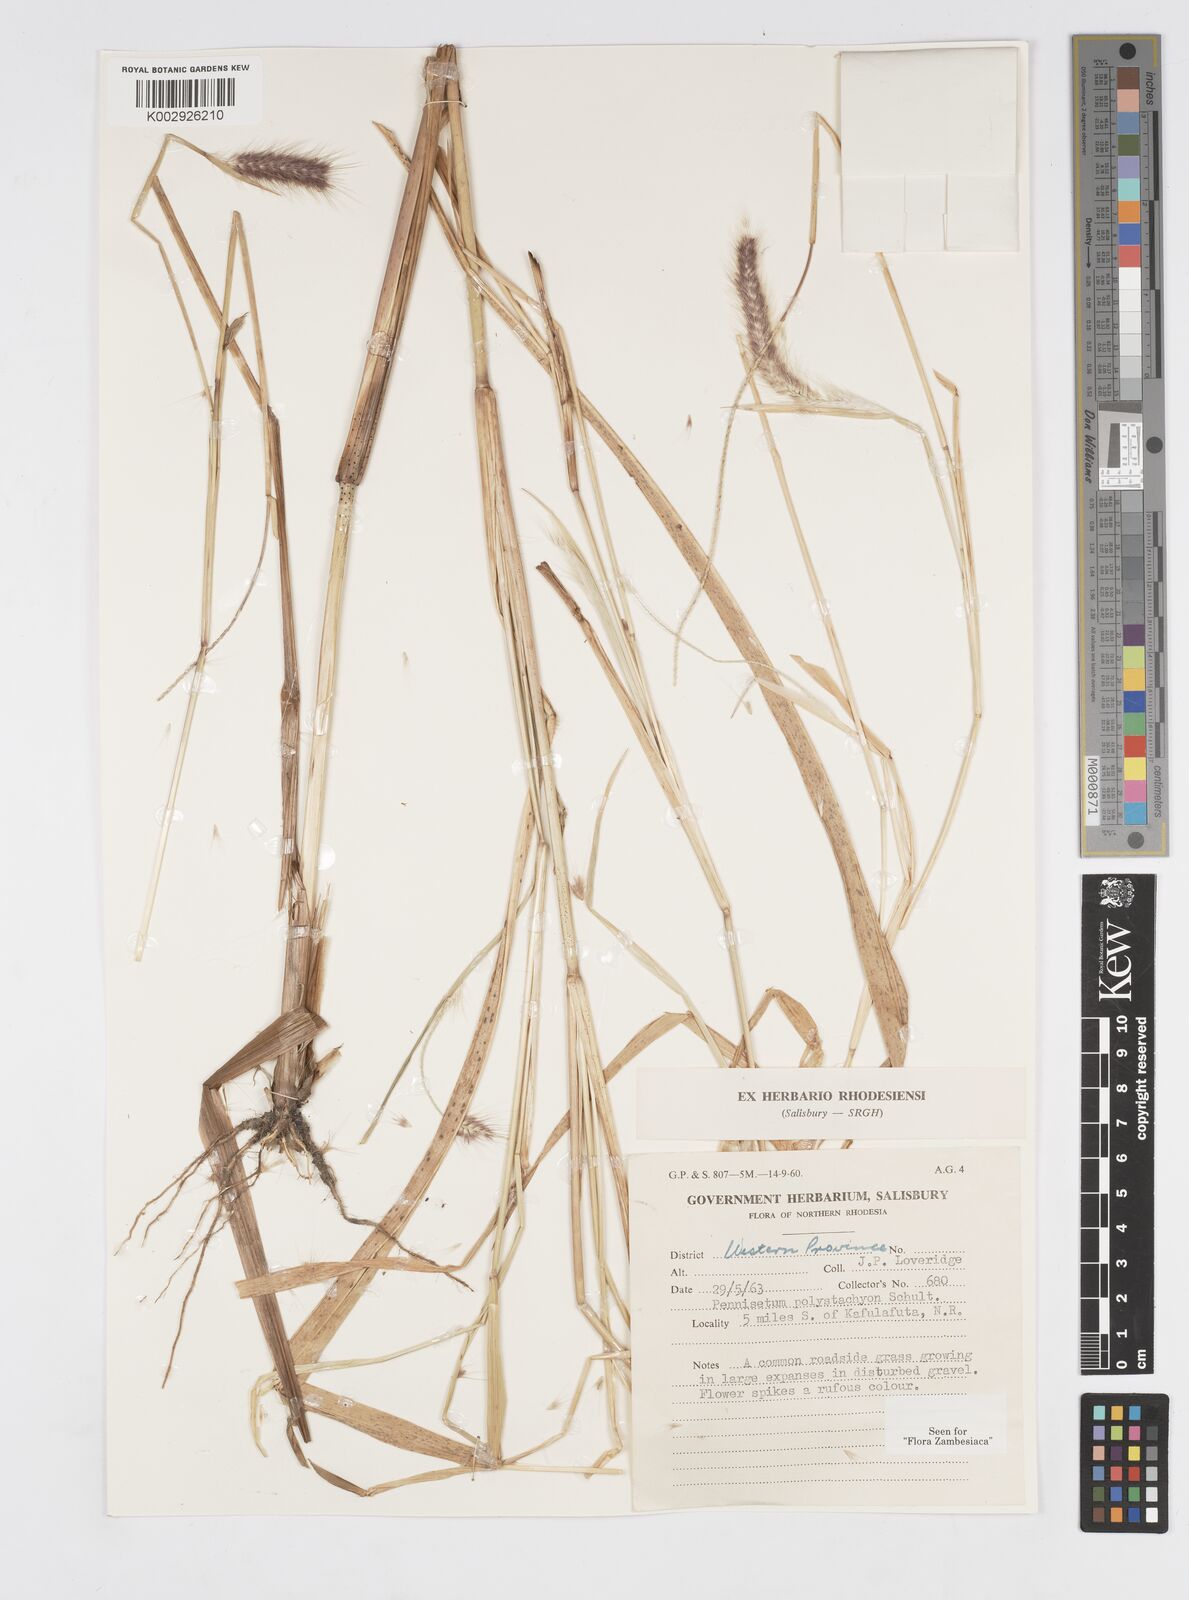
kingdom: Plantae
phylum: Tracheophyta
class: Liliopsida
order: Poales
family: Poaceae
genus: Setaria
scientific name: Setaria parviflora
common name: Knotroot bristle-grass
